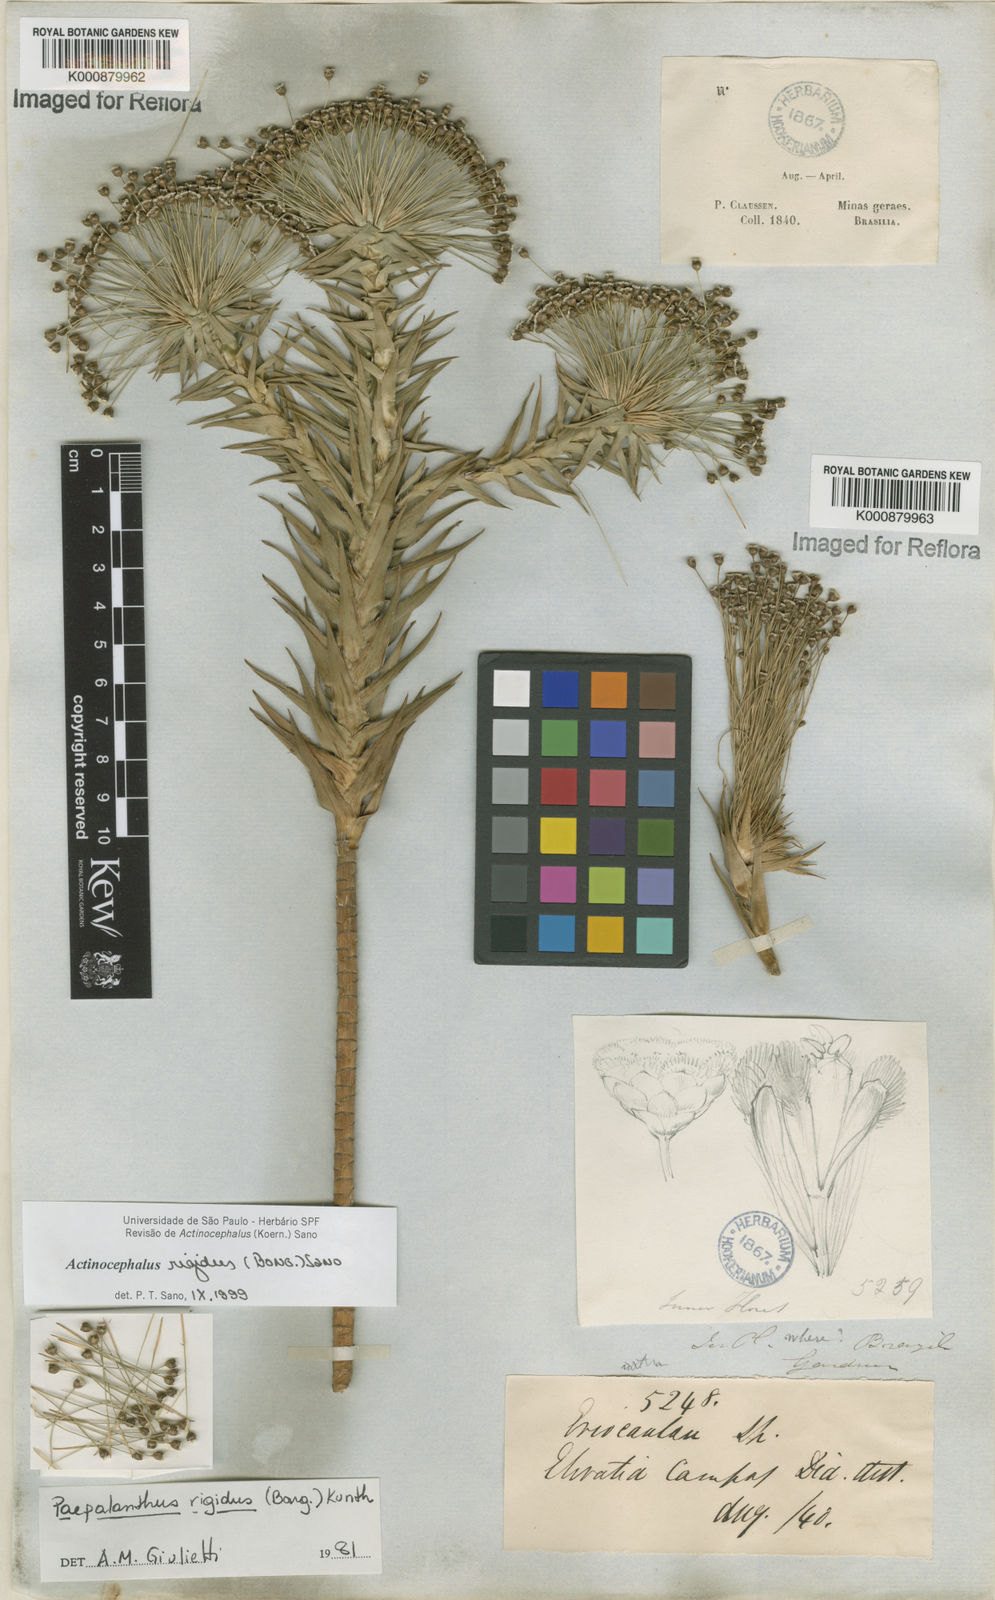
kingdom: Plantae
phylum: Tracheophyta
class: Liliopsida
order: Poales
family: Eriocaulaceae
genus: Paepalanthus
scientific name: Paepalanthus rigidus
